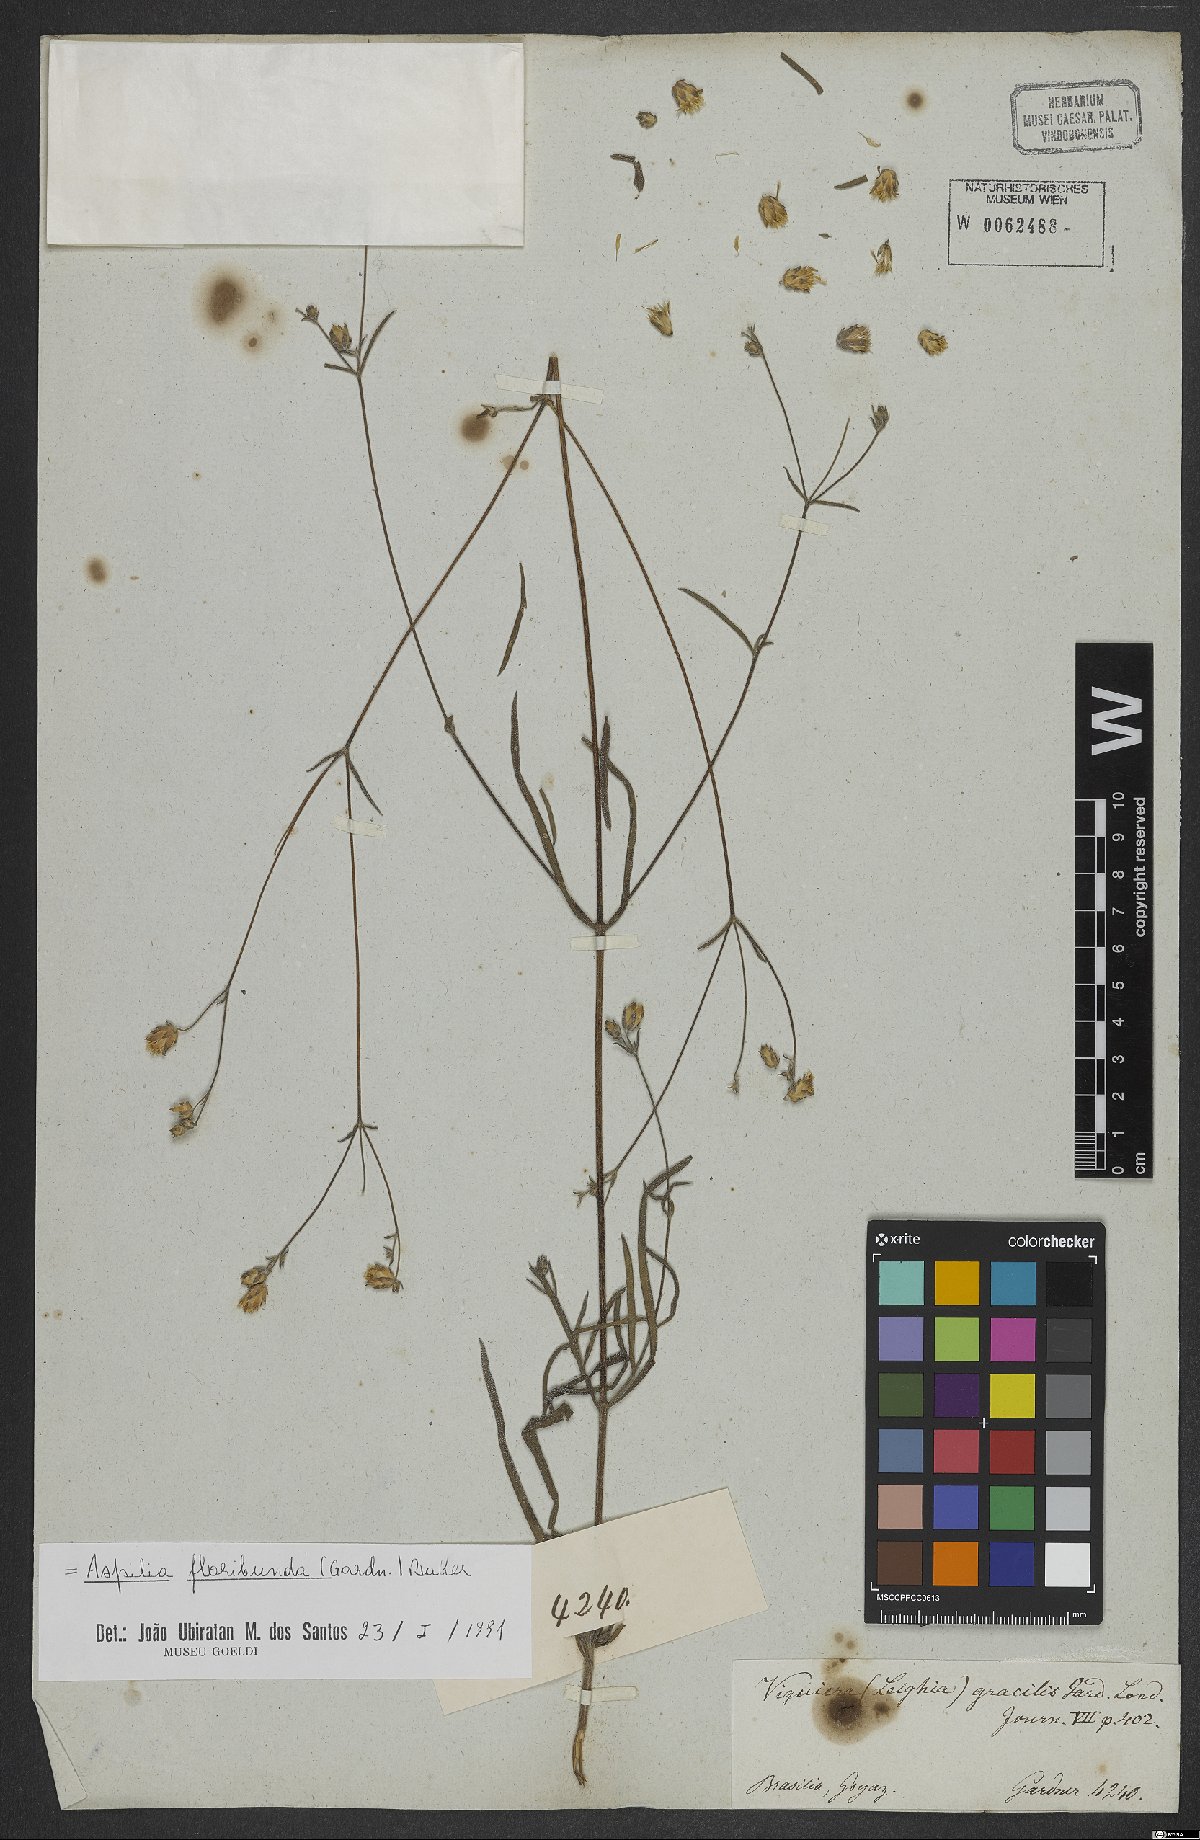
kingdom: Plantae
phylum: Tracheophyta
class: Magnoliopsida
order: Asterales
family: Asteraceae
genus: Wedelia
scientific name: Wedelia floribunda
